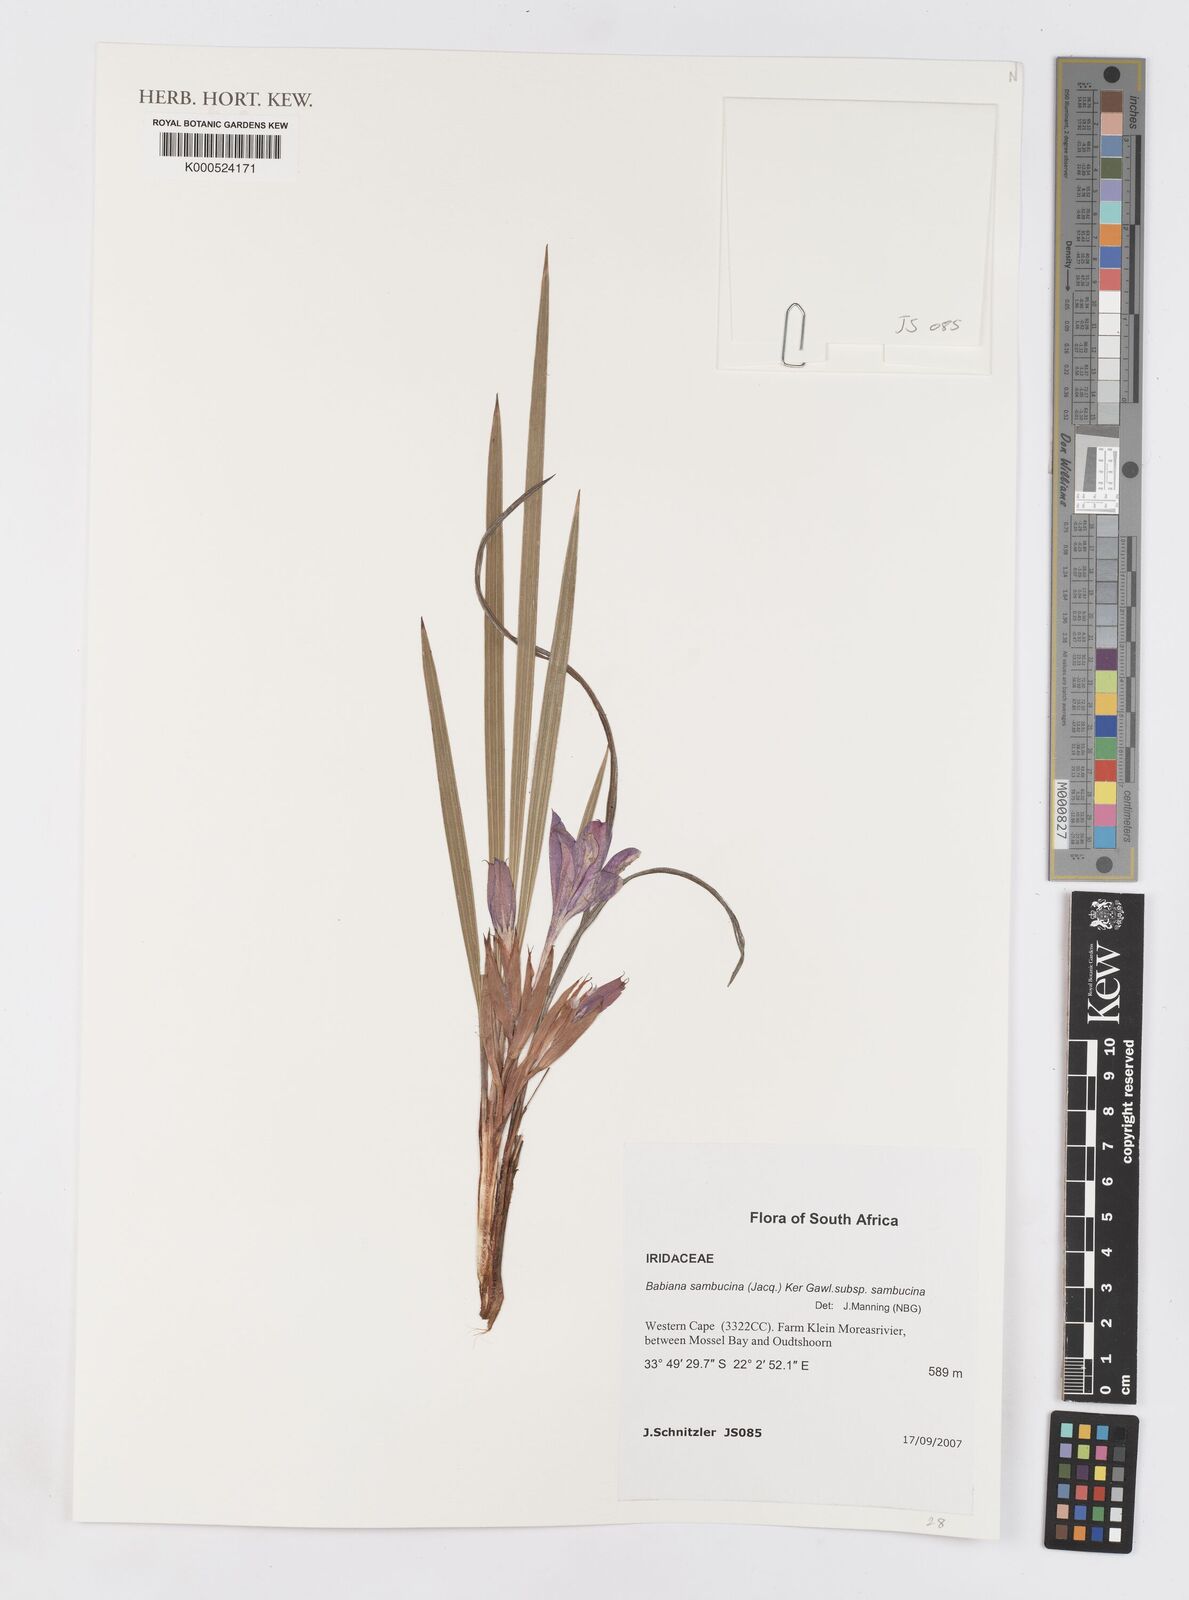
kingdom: Plantae
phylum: Tracheophyta
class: Liliopsida
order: Asparagales
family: Iridaceae
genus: Babiana
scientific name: Babiana sambucina
